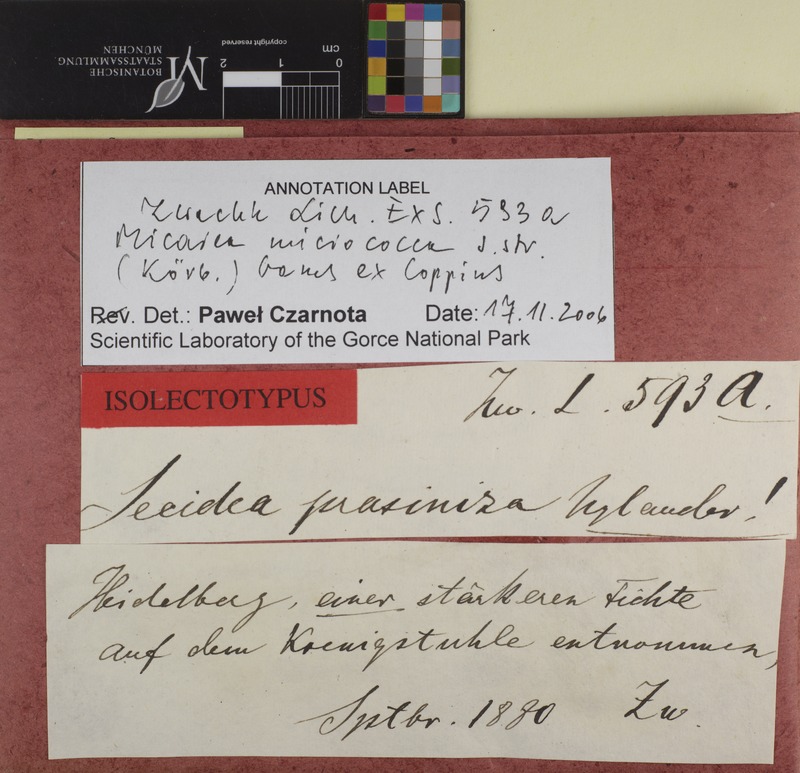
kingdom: Fungi
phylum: Ascomycota
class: Lecanoromycetes
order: Lecanorales
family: Byssolomataceae
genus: Micarea
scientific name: Micarea micrococca
